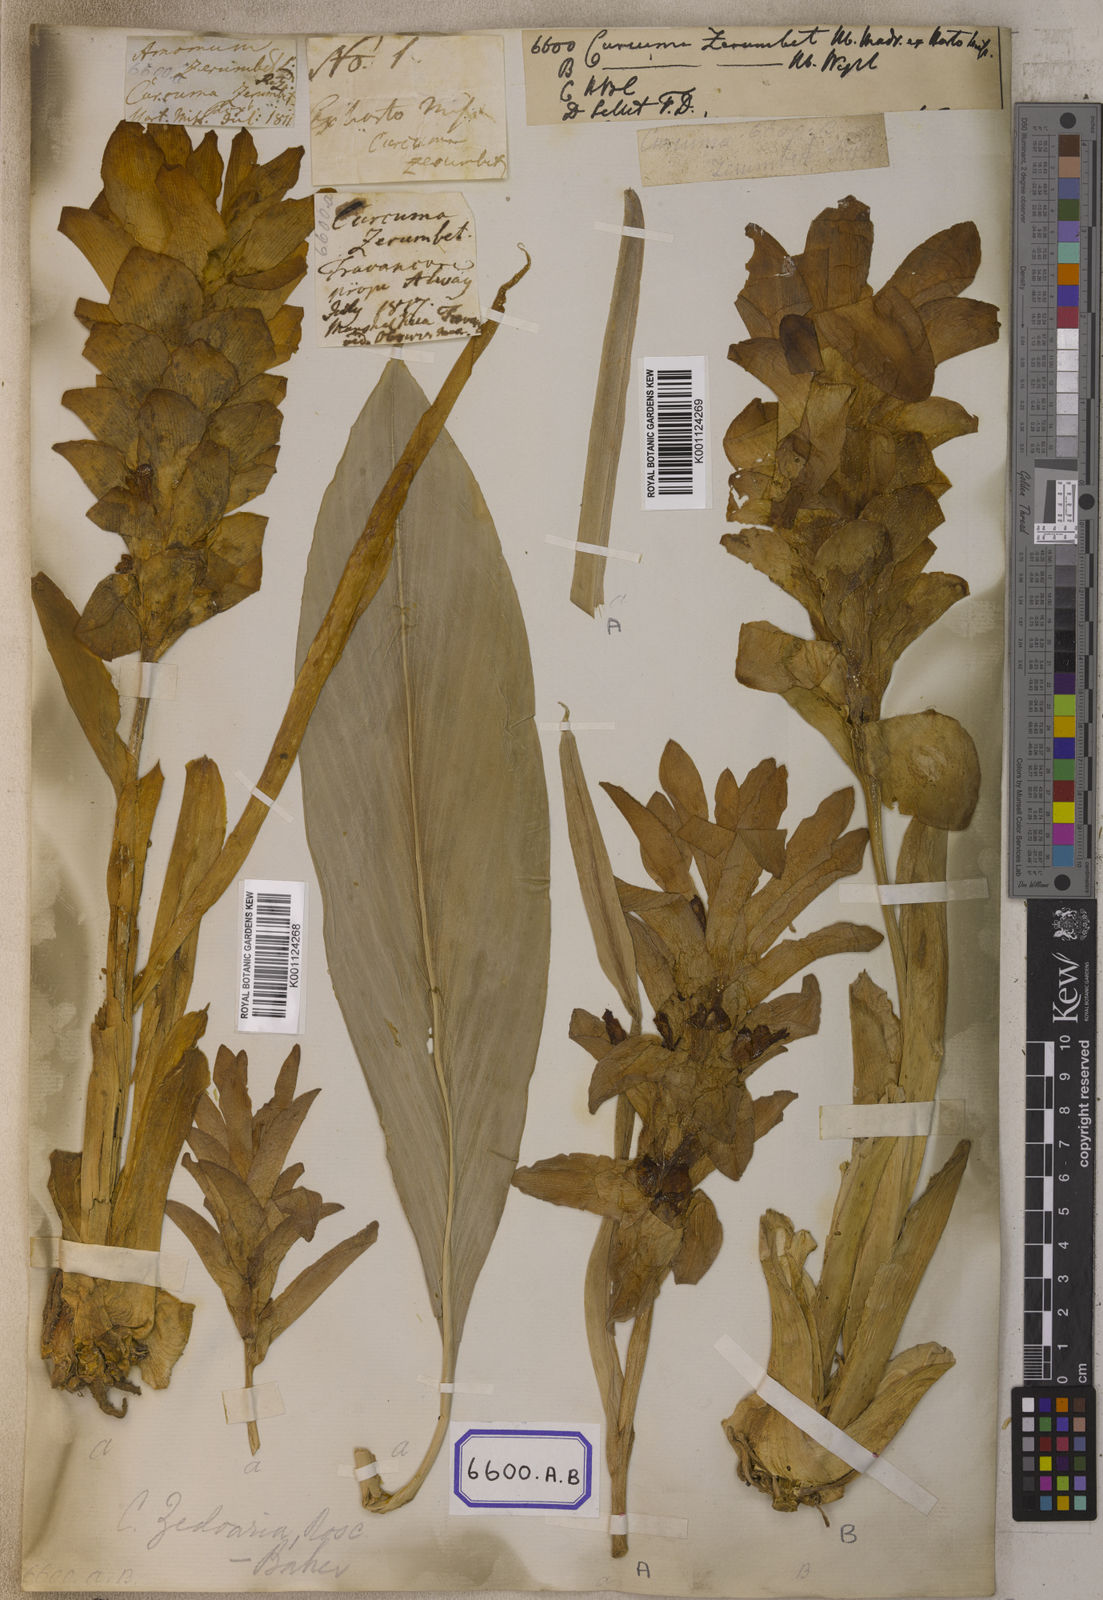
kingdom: Plantae
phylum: Tracheophyta
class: Liliopsida
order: Zingiberales
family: Zingiberaceae
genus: Curcuma
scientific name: Curcuma euchroma
